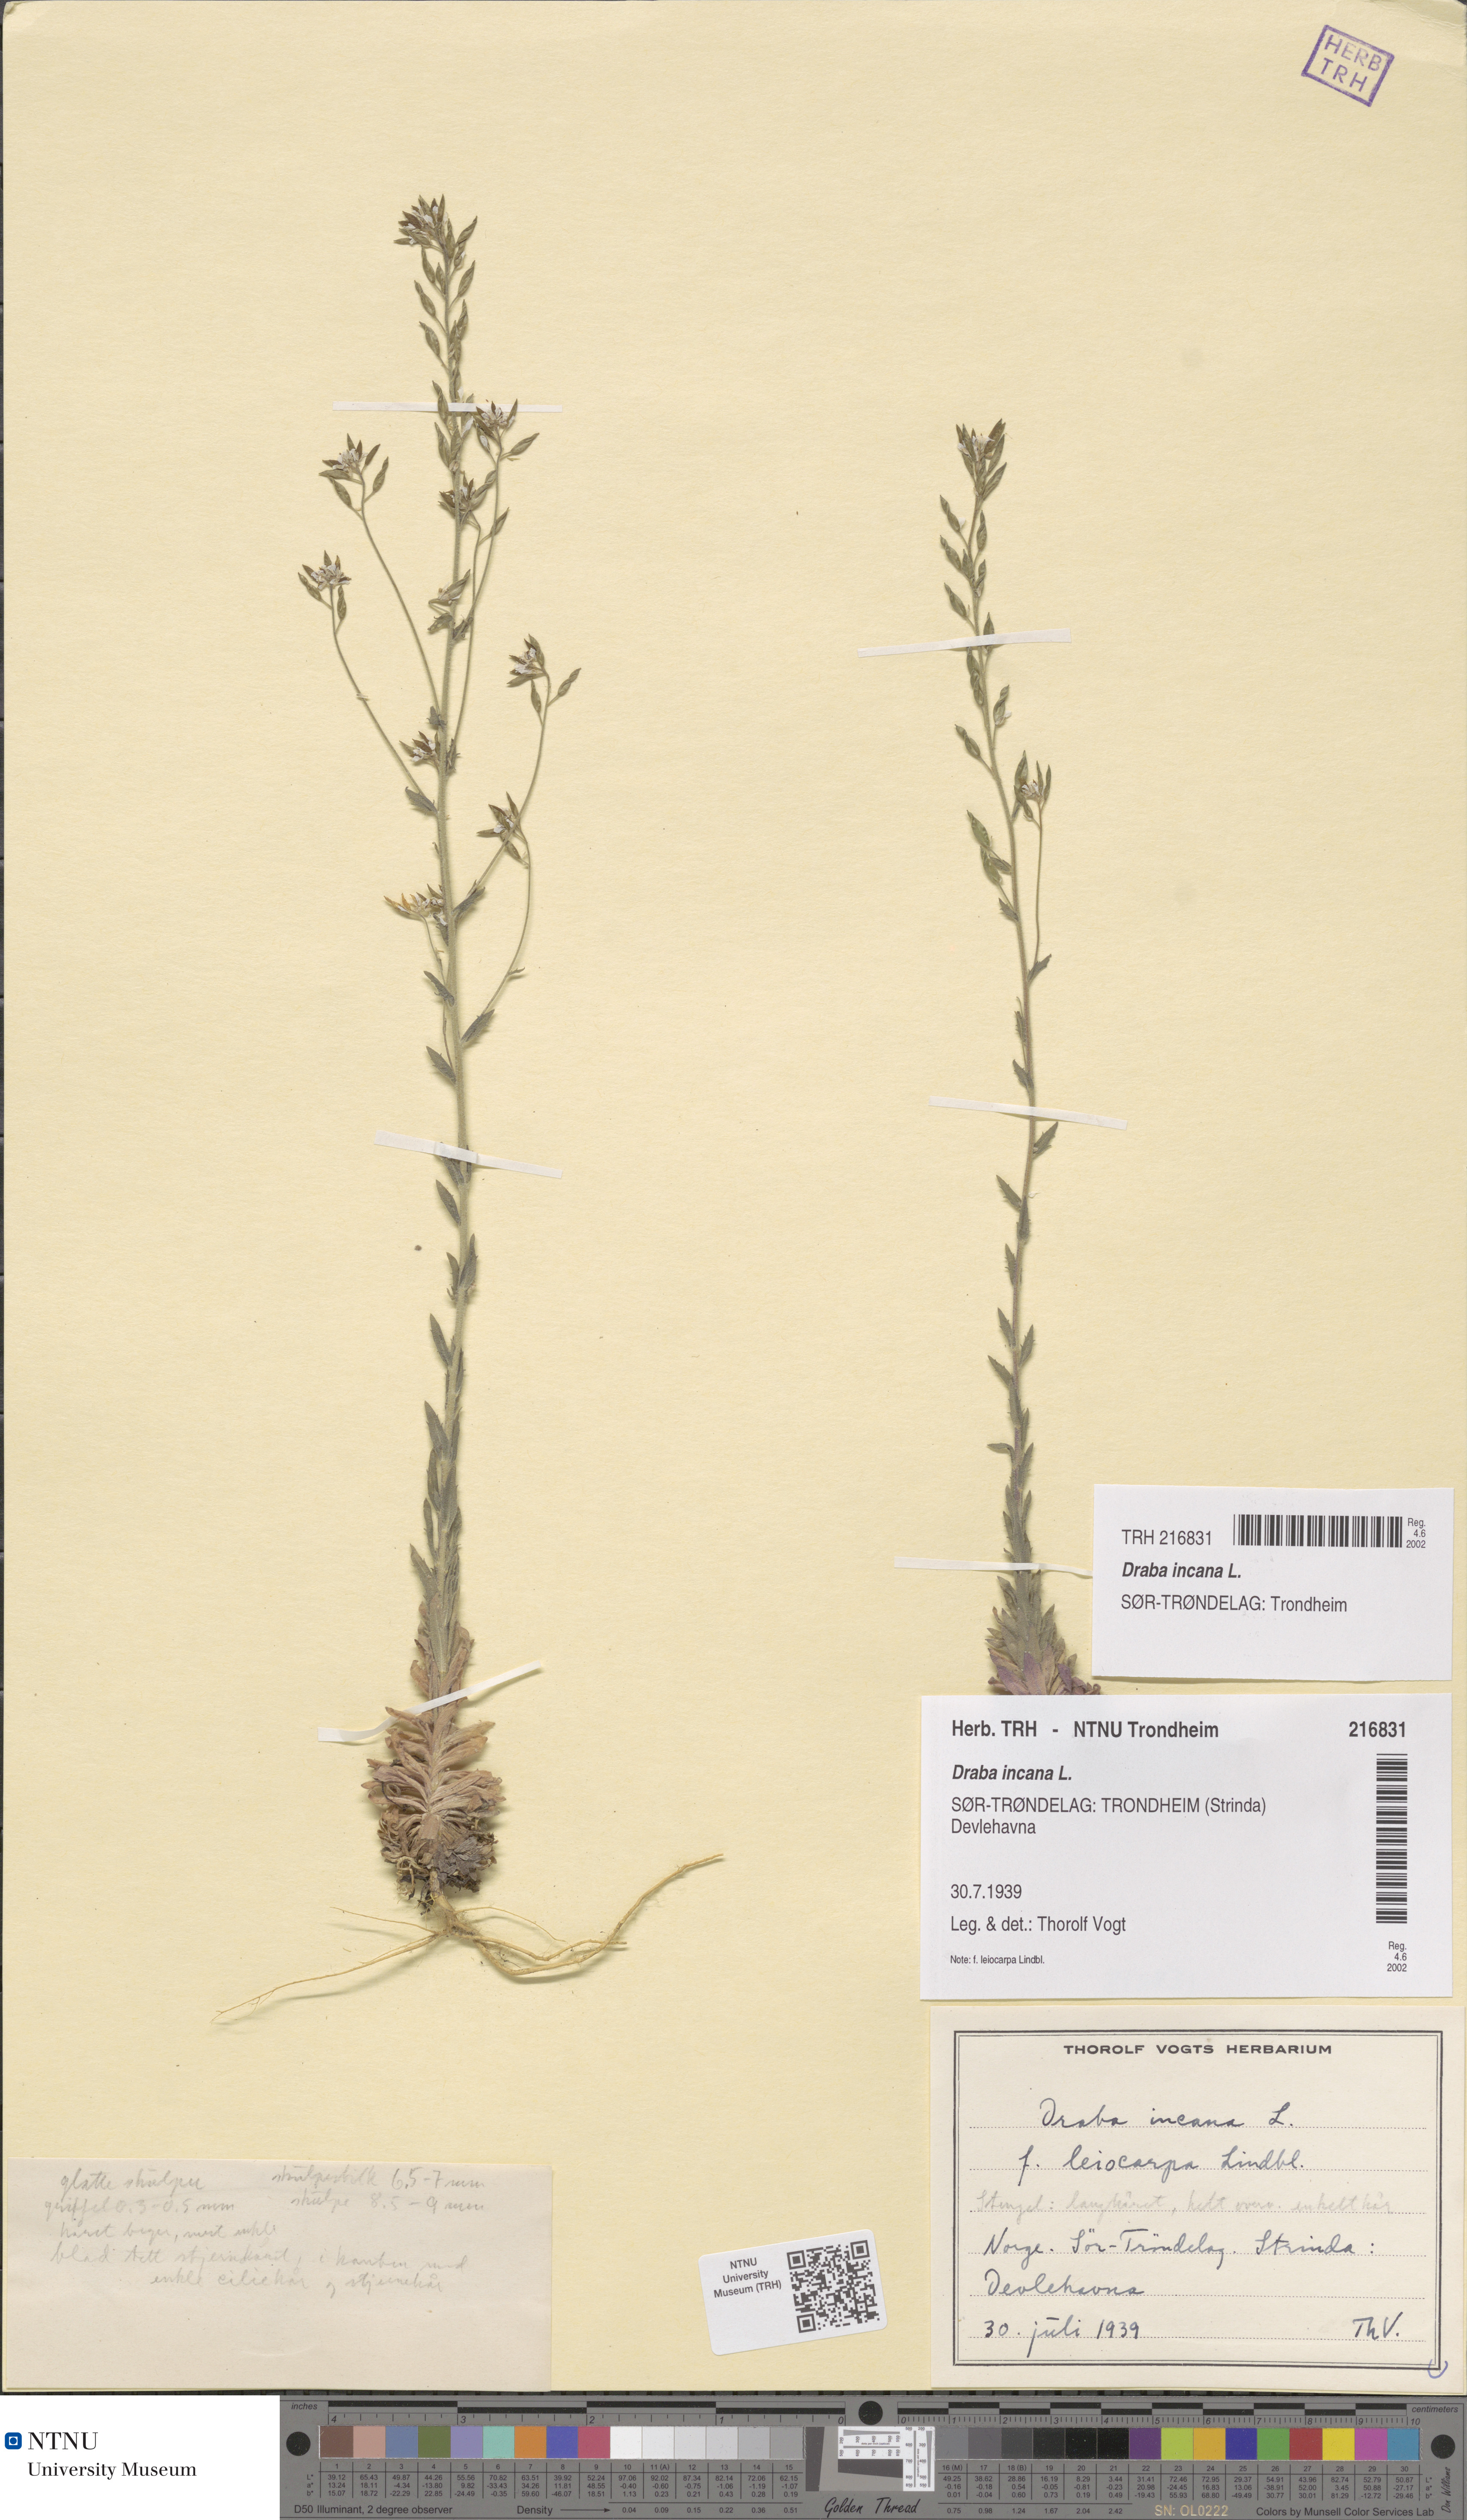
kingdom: Plantae
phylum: Tracheophyta
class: Magnoliopsida
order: Brassicales
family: Brassicaceae
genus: Draba
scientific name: Draba incana
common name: Hoary whitlow-grass
